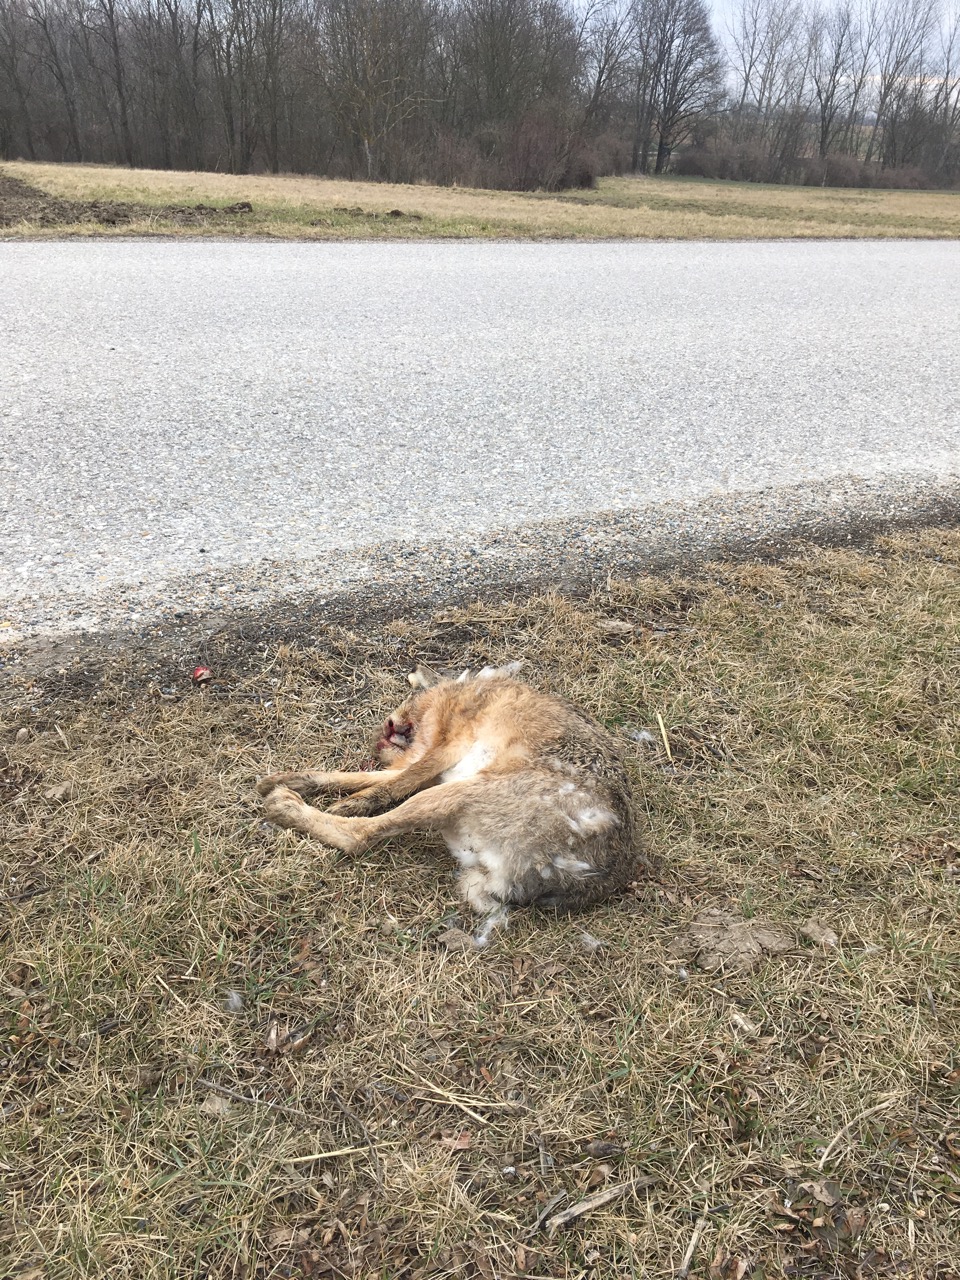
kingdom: Animalia
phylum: Chordata
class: Mammalia
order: Lagomorpha
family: Leporidae
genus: Lepus
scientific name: Lepus europaeus
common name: European hare
